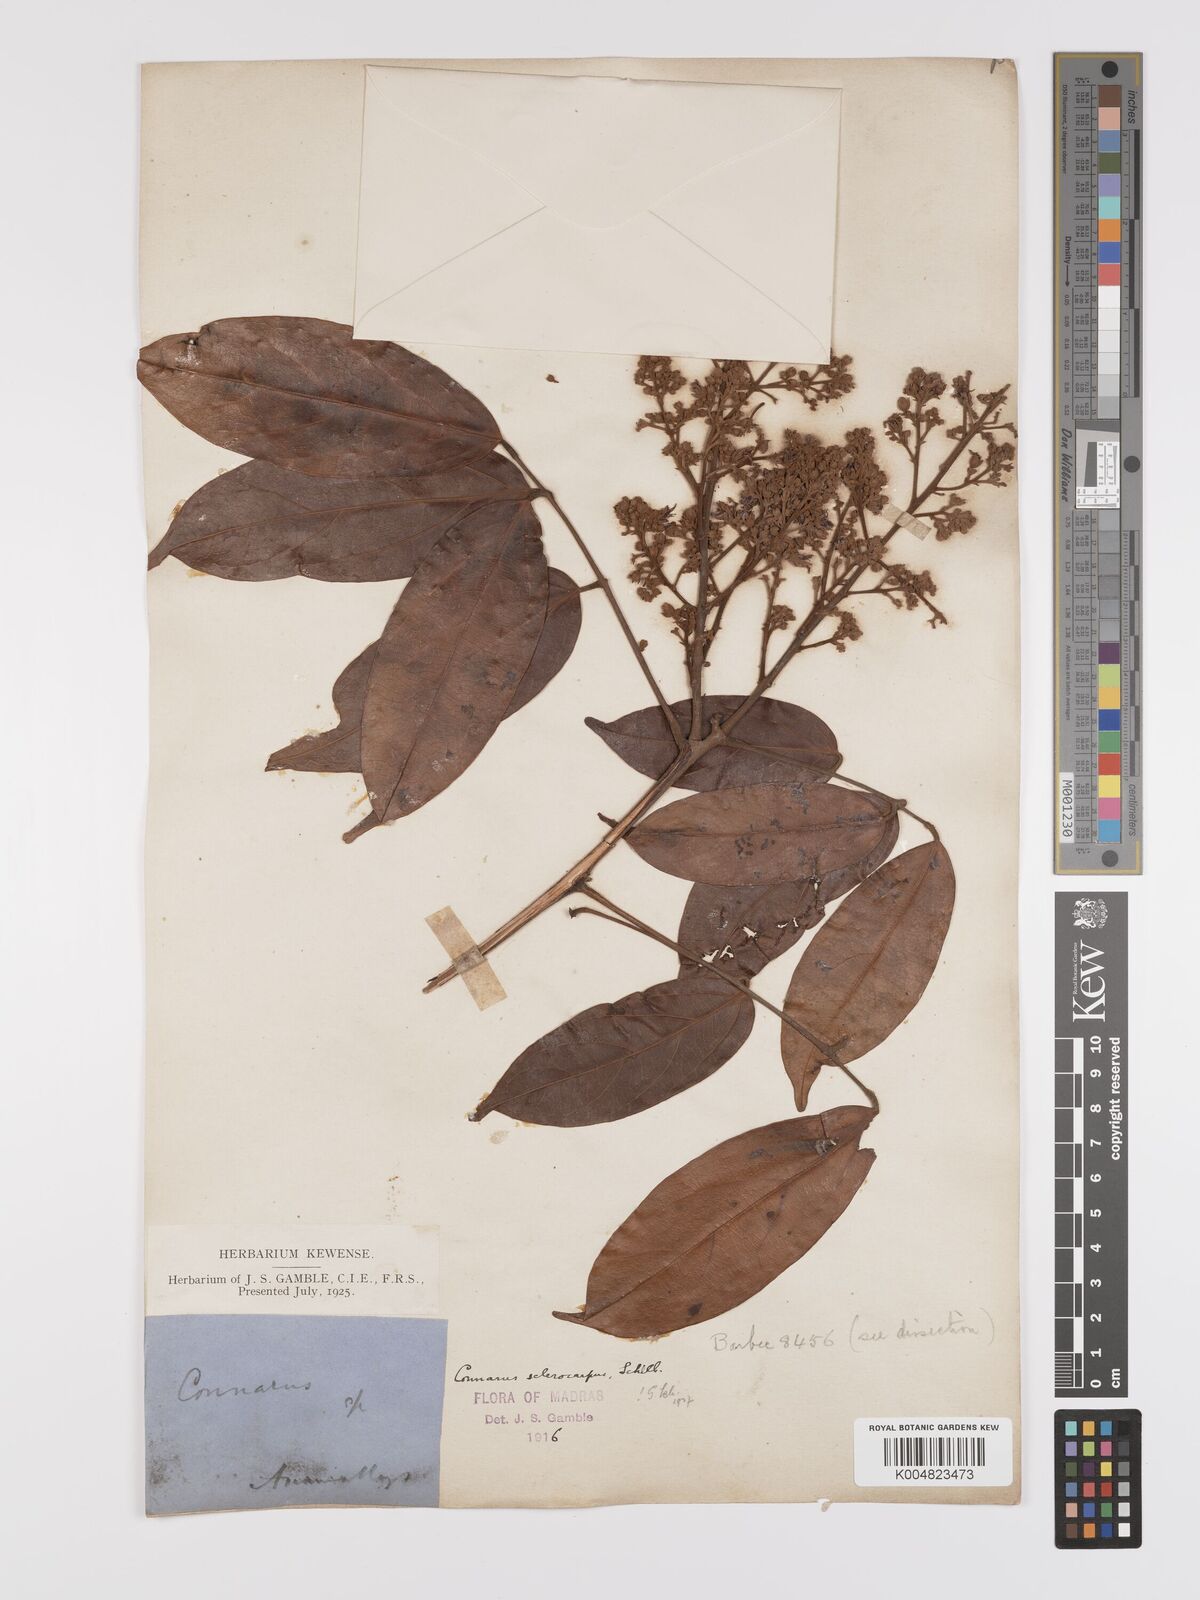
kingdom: Plantae
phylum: Tracheophyta
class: Magnoliopsida
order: Oxalidales
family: Connaraceae
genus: Connarus
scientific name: Connarus sclerocarpus
